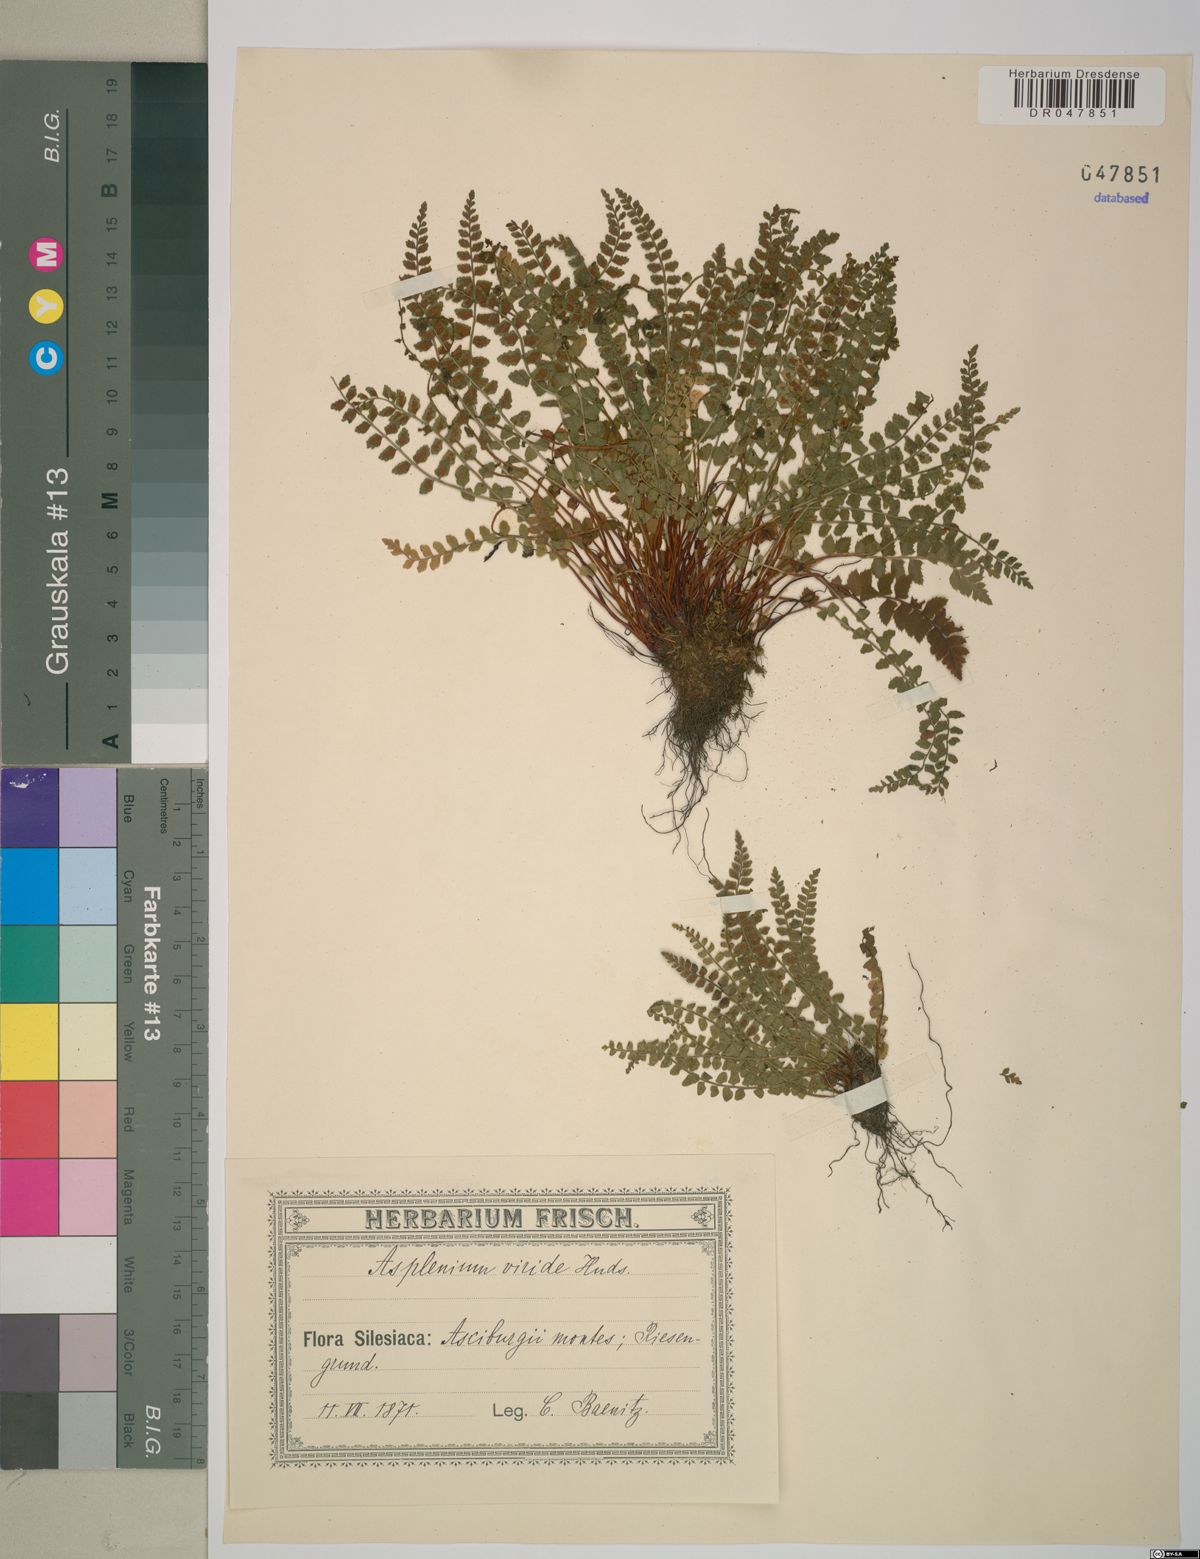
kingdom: Plantae
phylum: Tracheophyta
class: Polypodiopsida
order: Polypodiales
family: Aspleniaceae
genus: Asplenium
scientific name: Asplenium viride
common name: Green spleenwort
